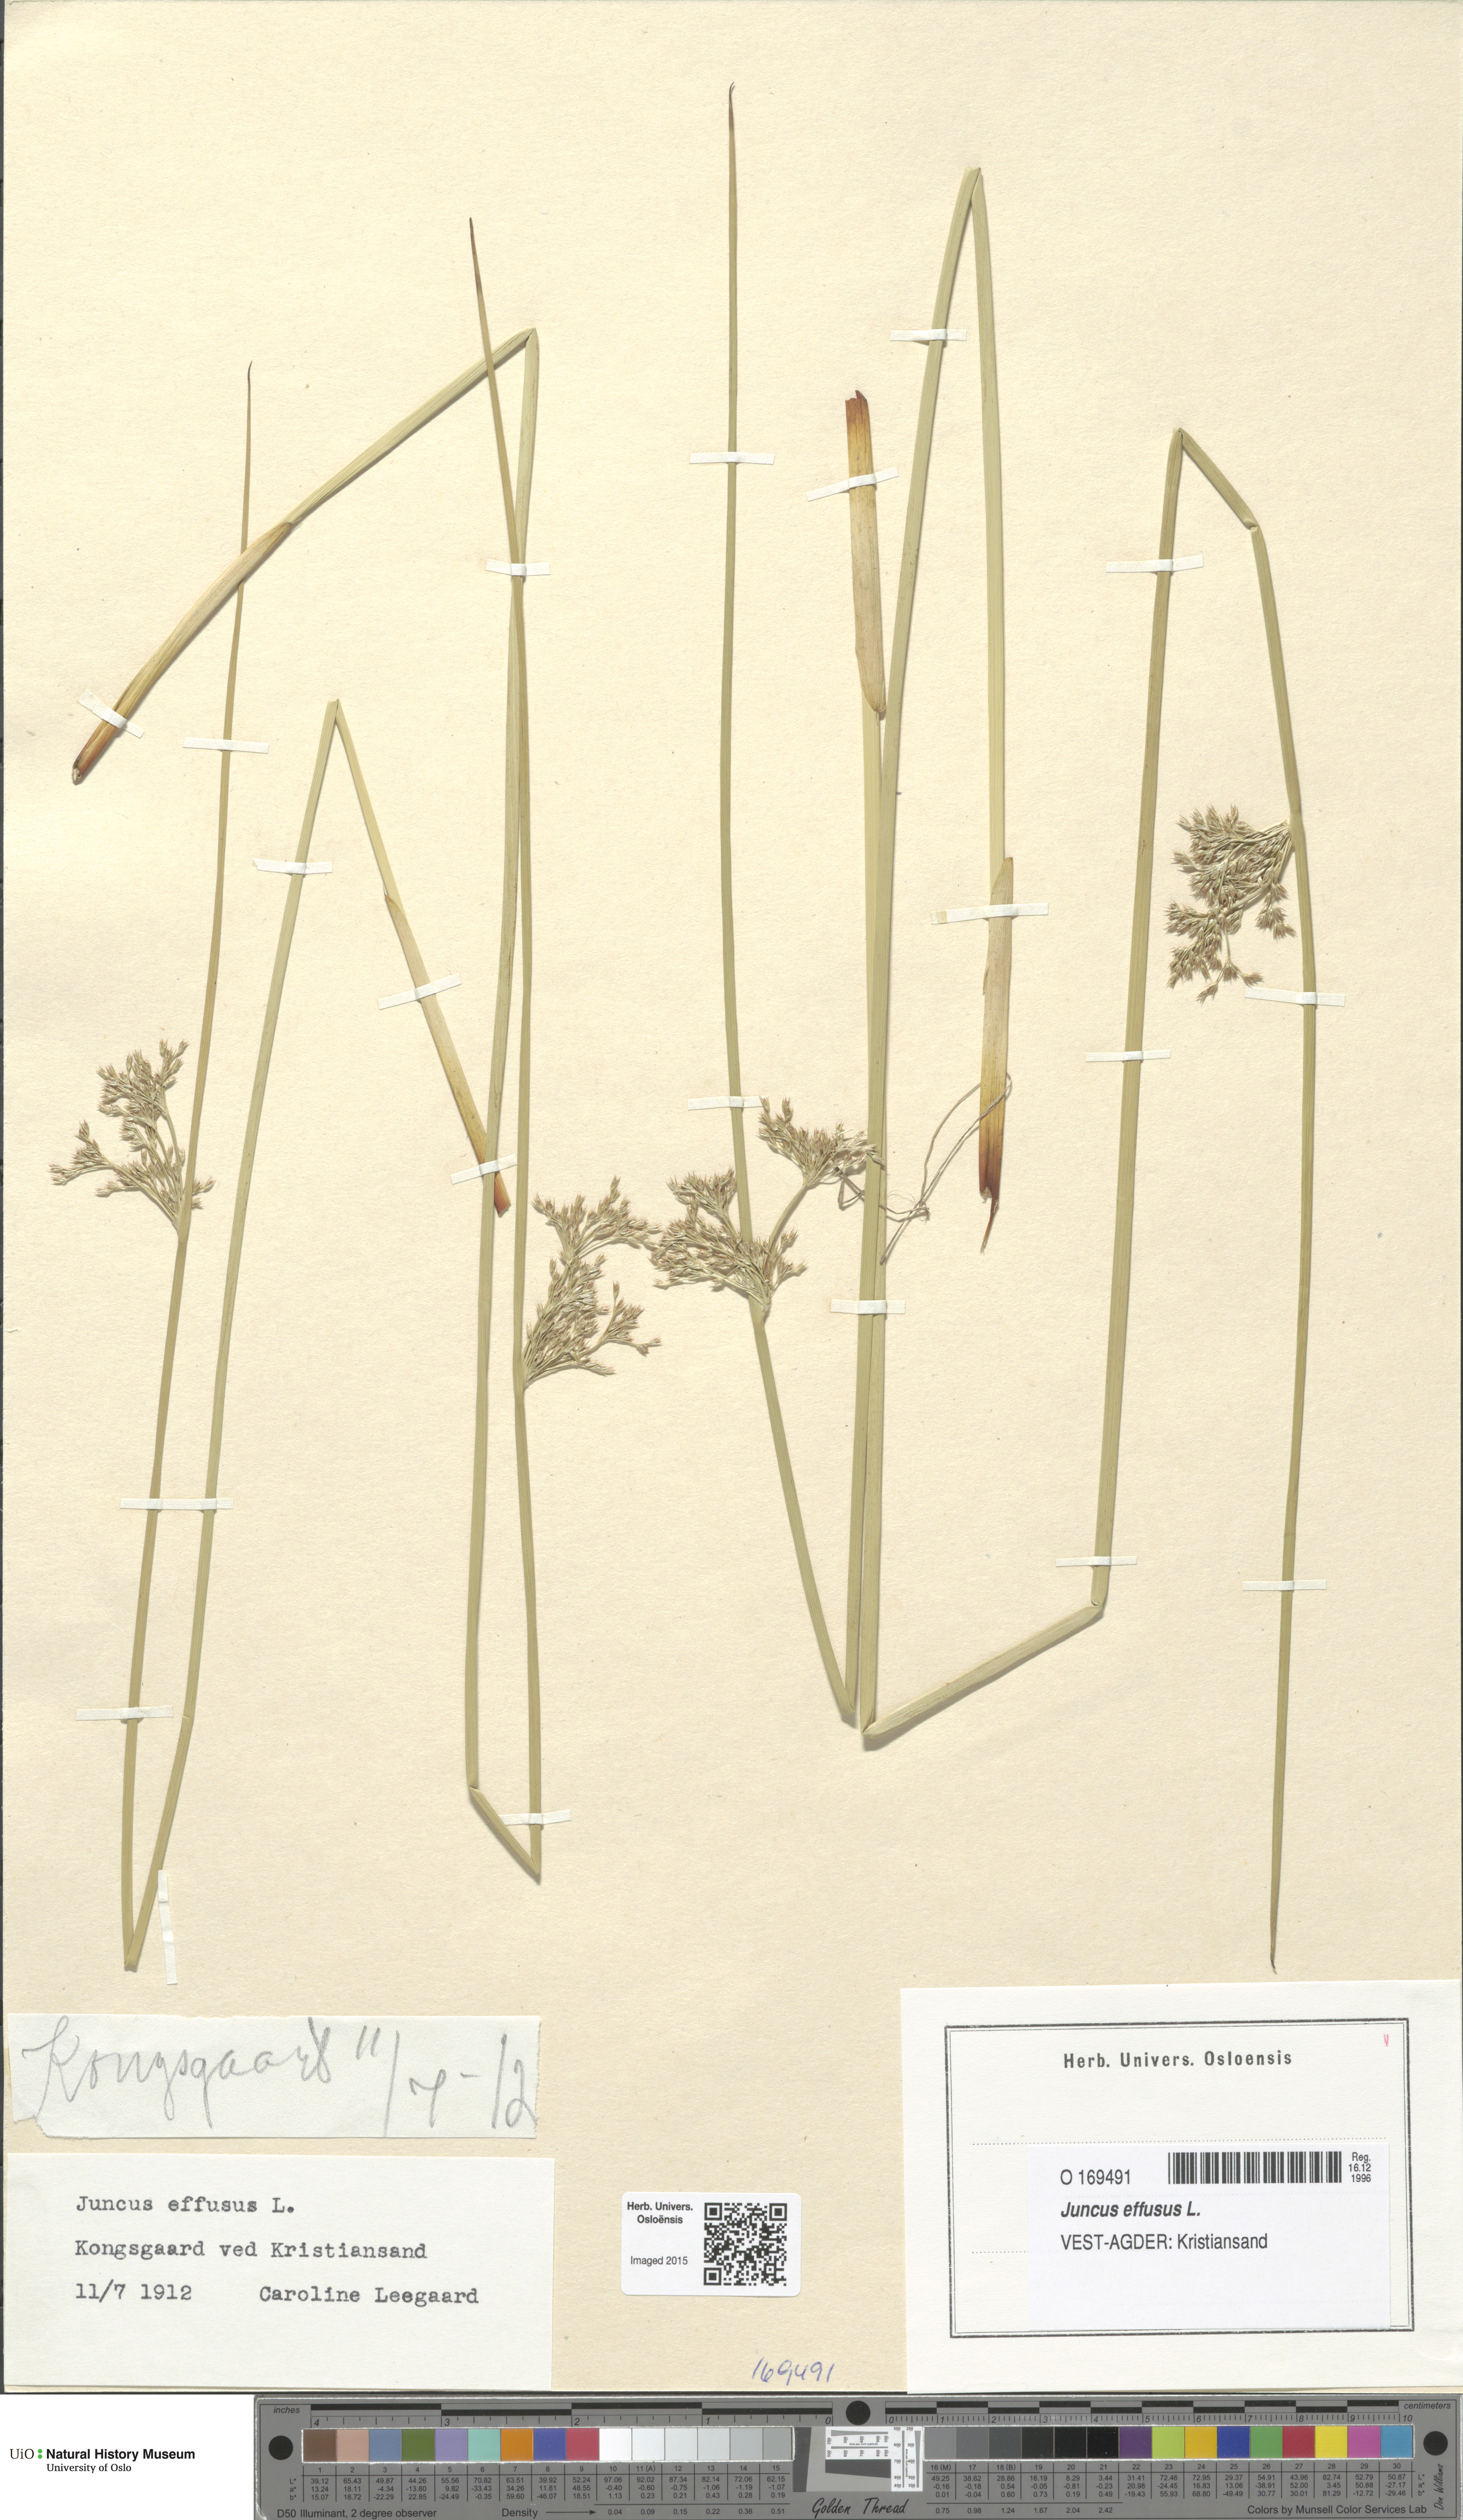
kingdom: Plantae
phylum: Tracheophyta
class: Liliopsida
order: Poales
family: Juncaceae
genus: Juncus
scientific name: Juncus effusus
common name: Soft rush
